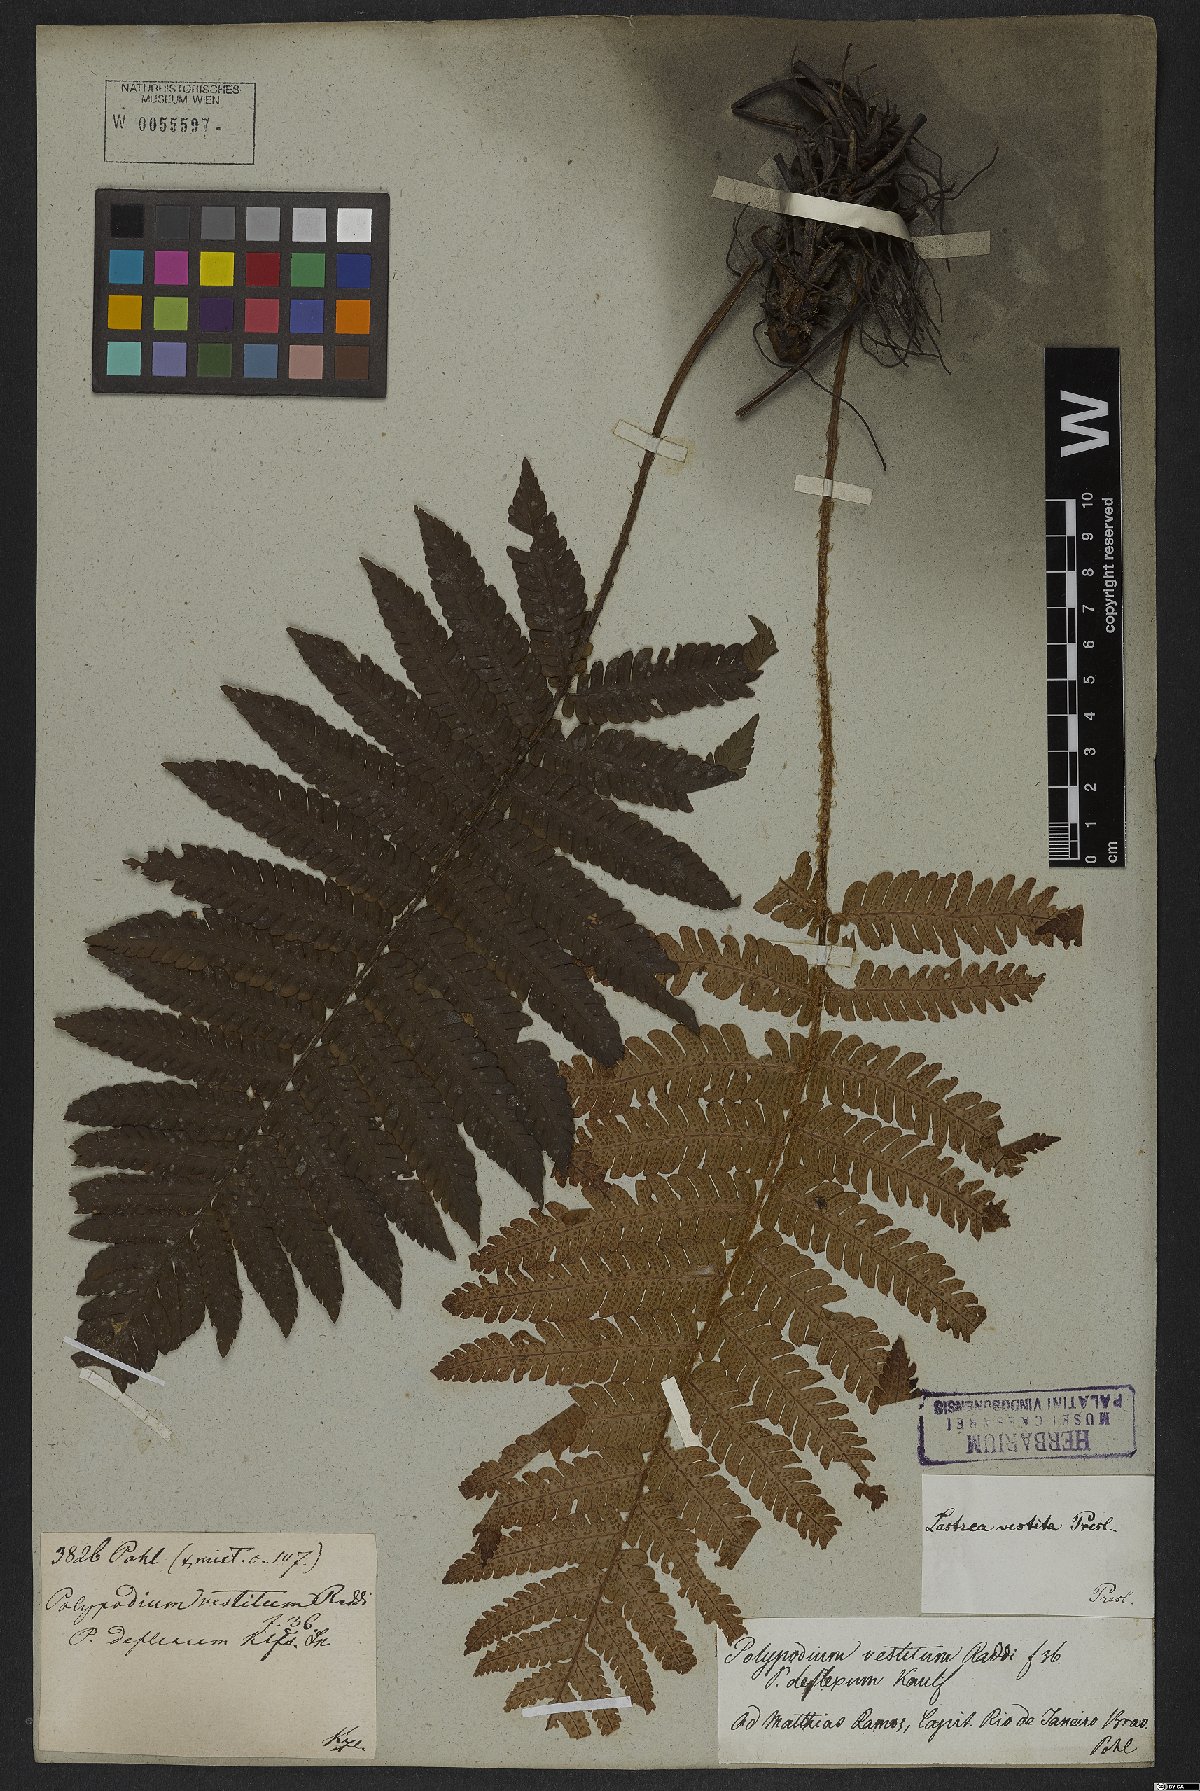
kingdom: Plantae
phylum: Tracheophyta
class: Polypodiopsida
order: Polypodiales
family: Thelypteridaceae
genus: Glaphyropteridopsis
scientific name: Glaphyropteridopsis erubescens
